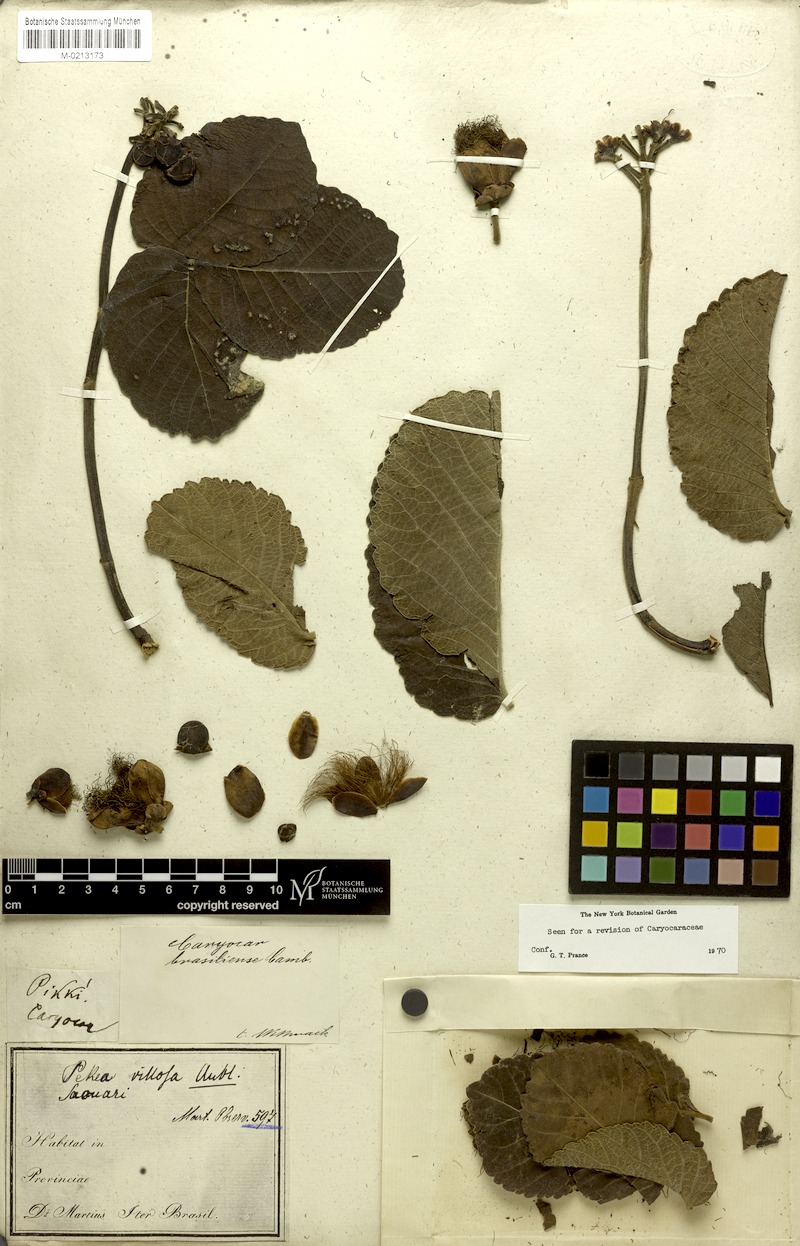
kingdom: Plantae
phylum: Tracheophyta
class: Magnoliopsida
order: Malpighiales
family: Caryocaraceae
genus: Caryocar
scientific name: Caryocar brasiliense
